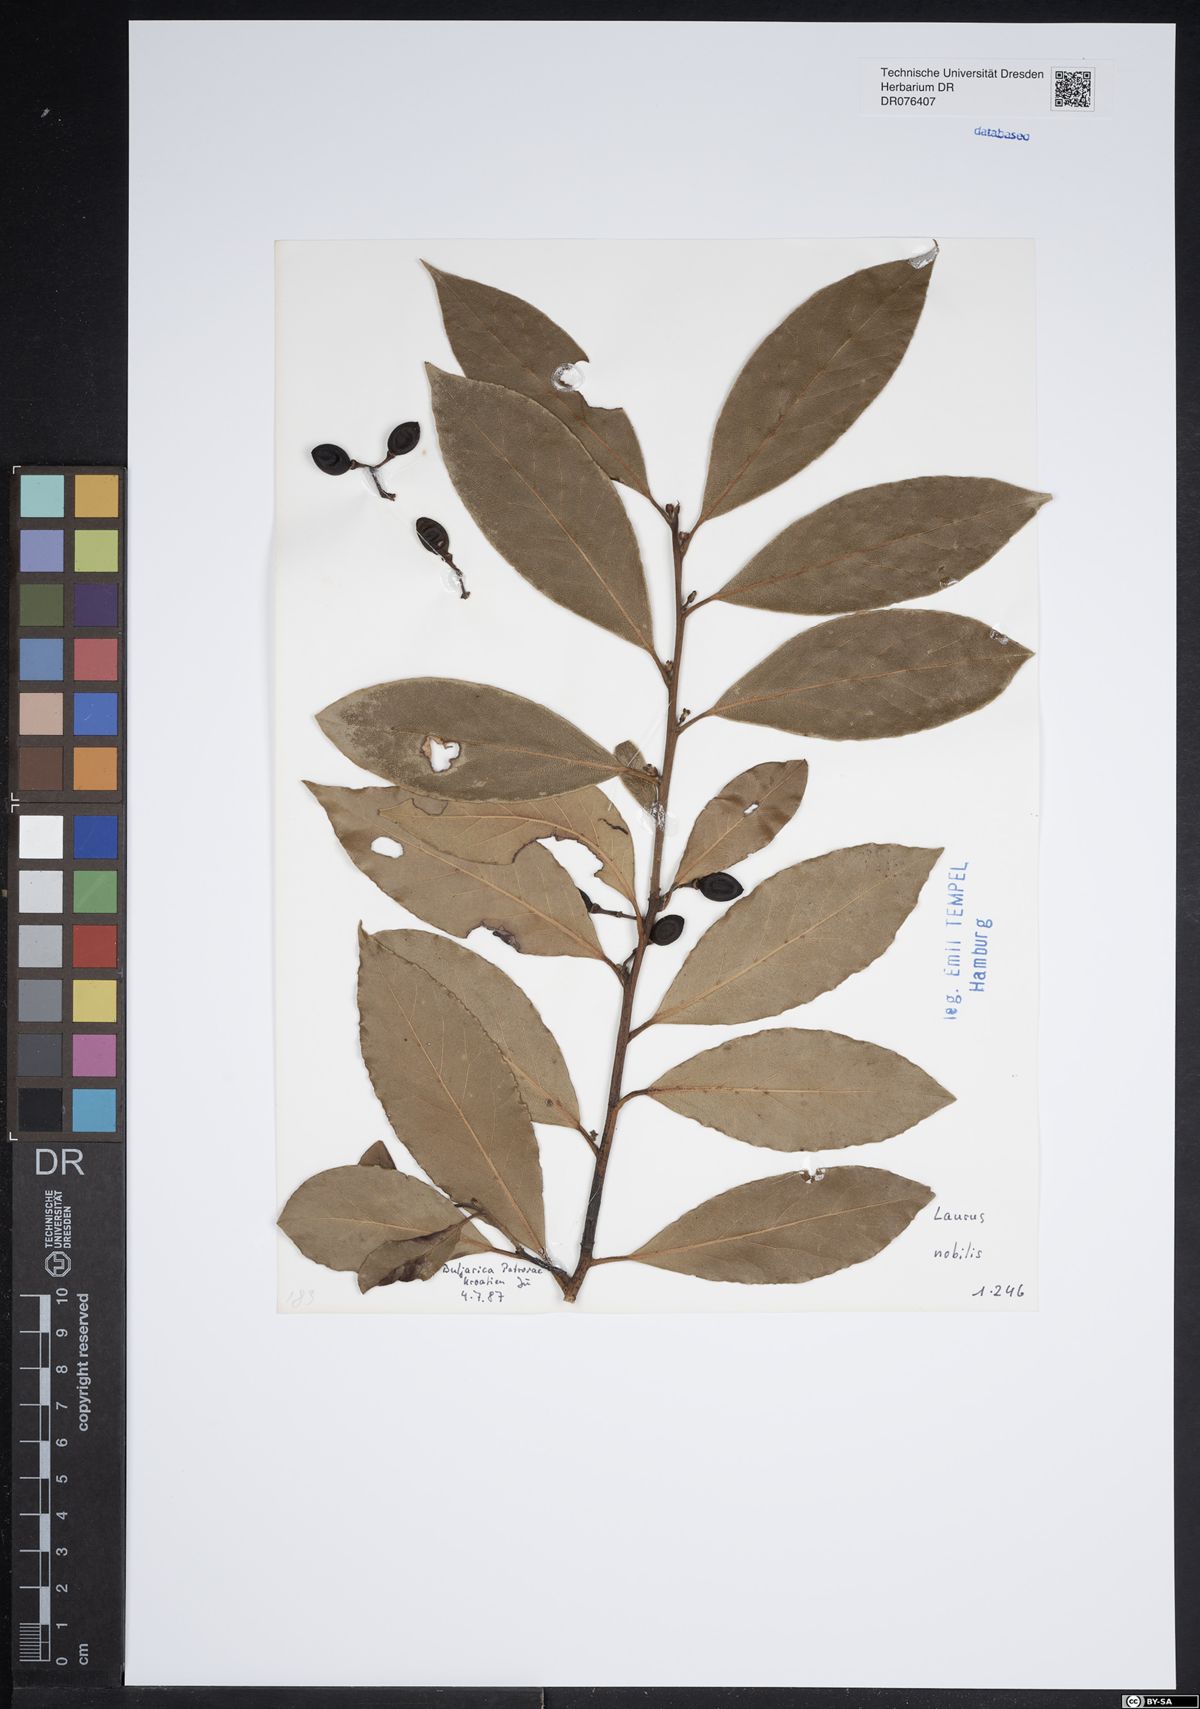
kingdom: Plantae
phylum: Tracheophyta
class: Magnoliopsida
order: Laurales
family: Lauraceae
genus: Laurus
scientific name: Laurus nobilis
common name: Bay
